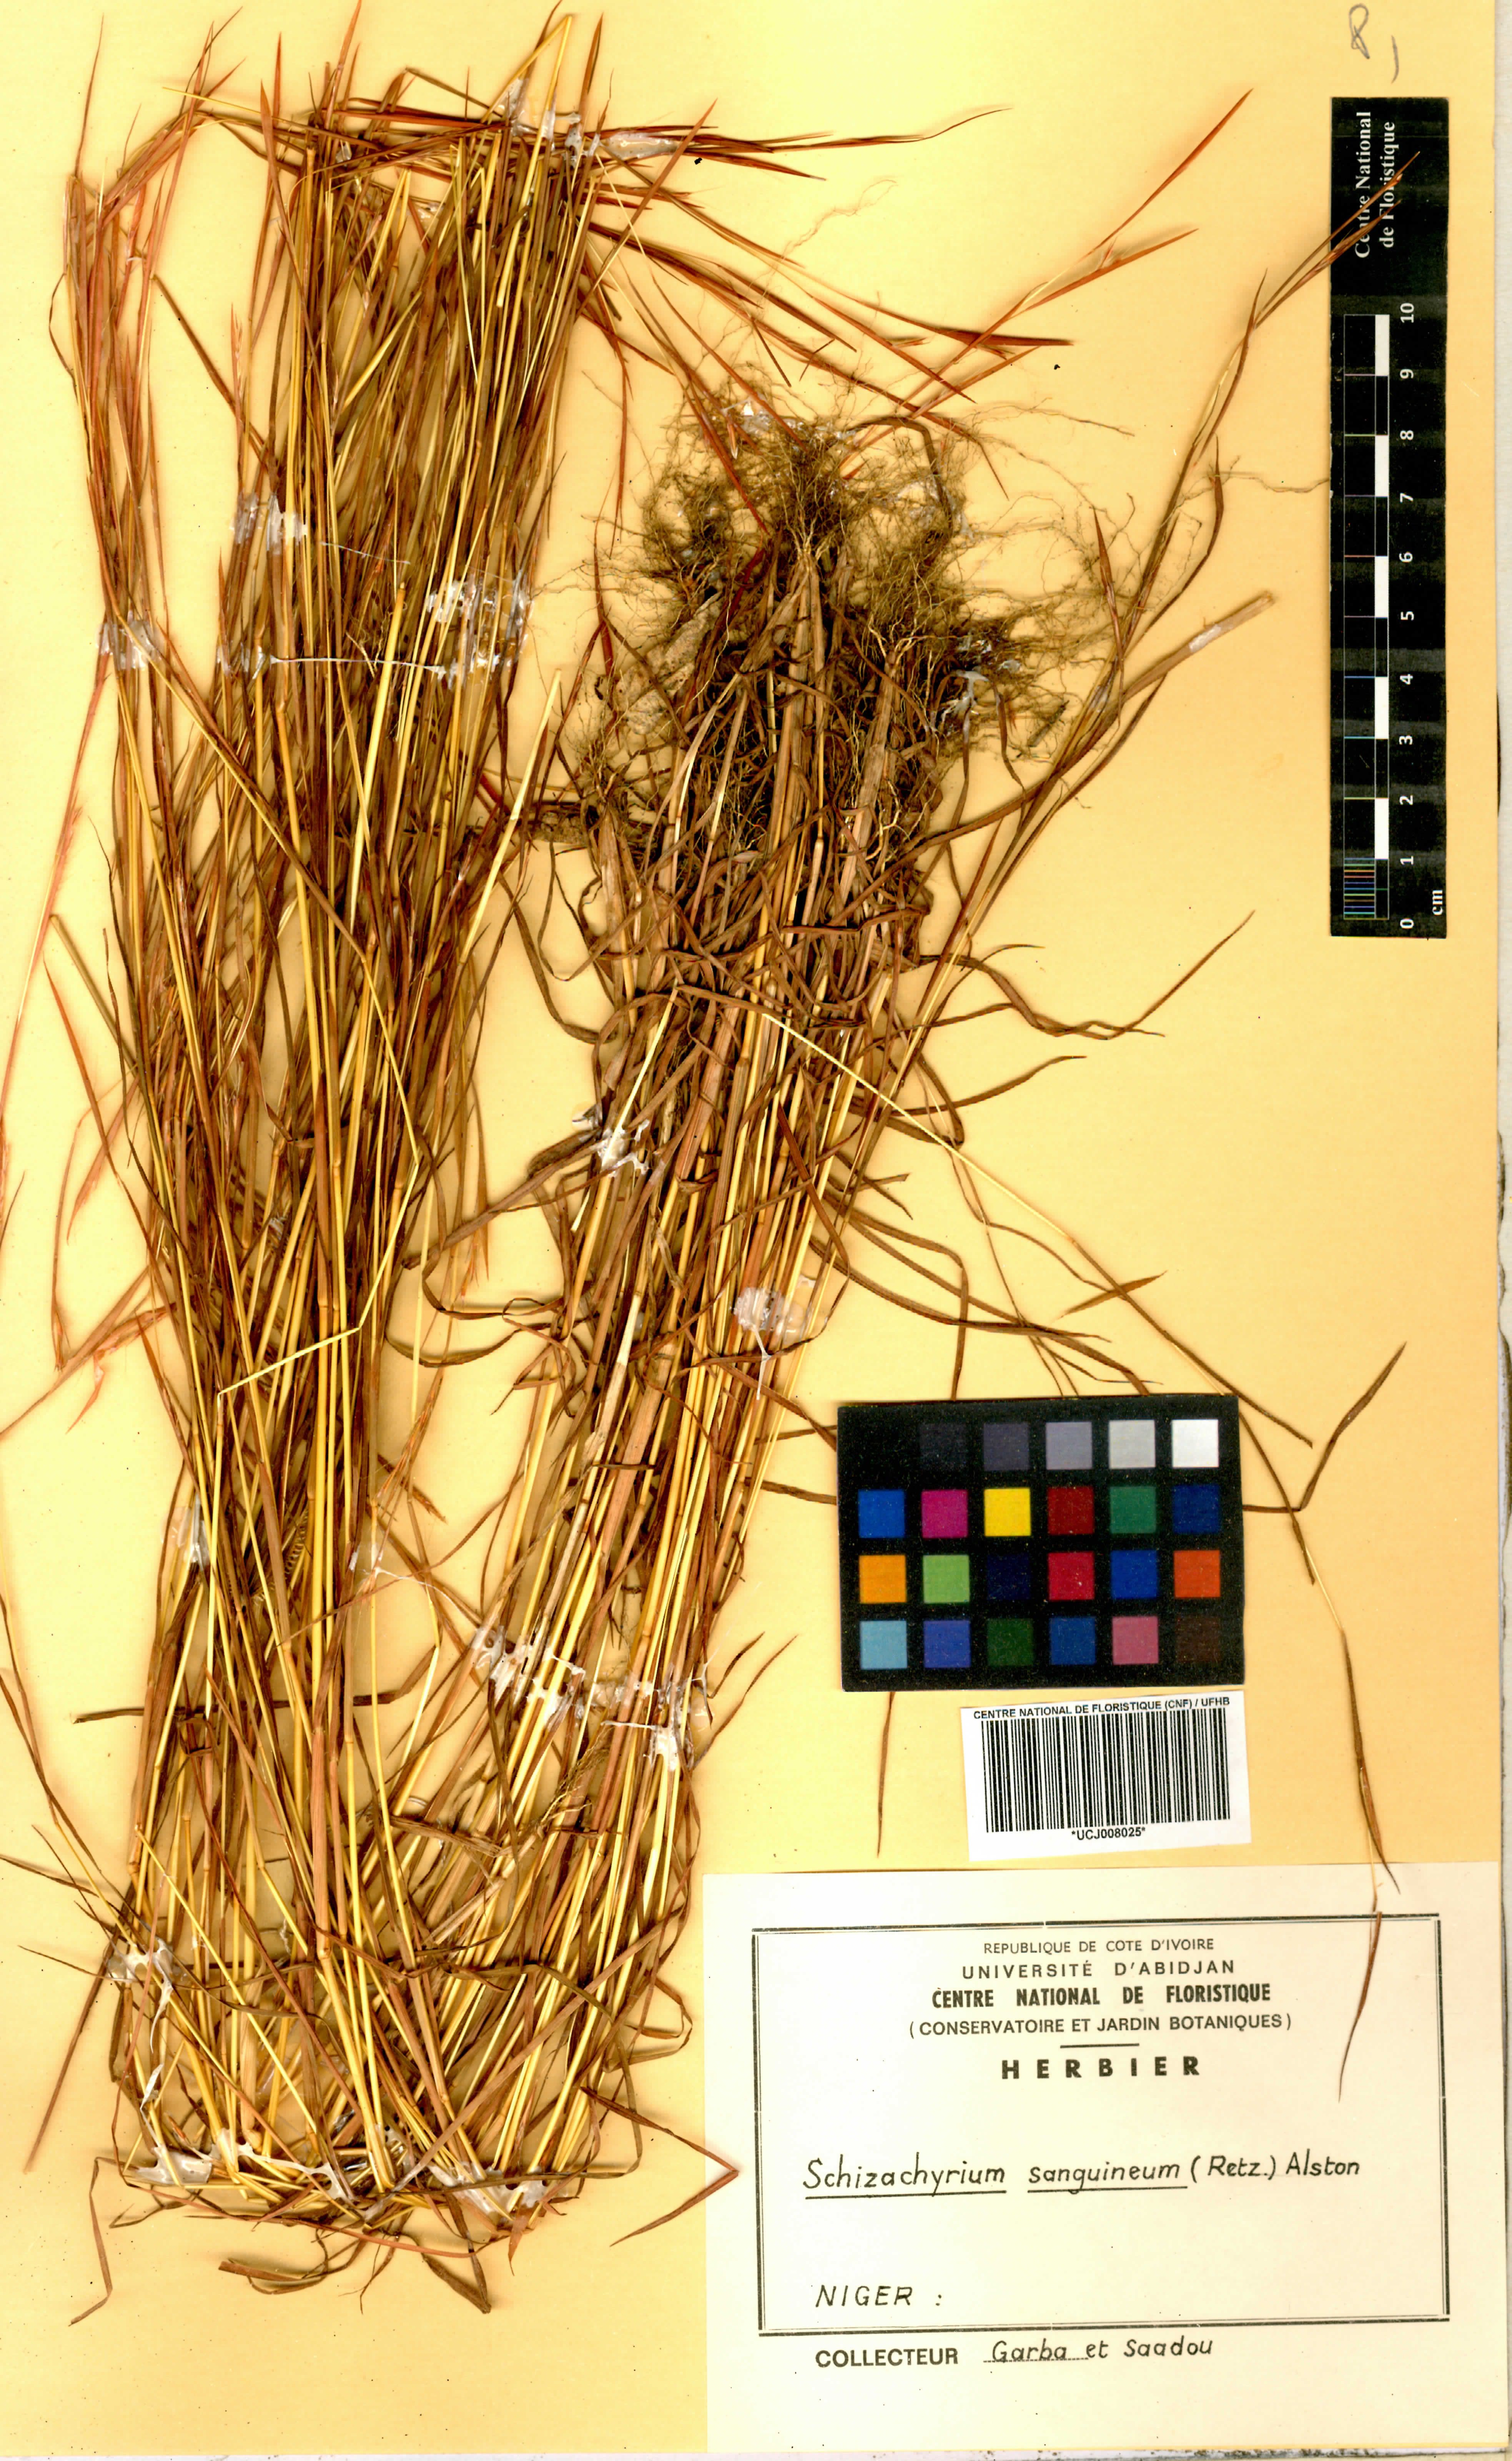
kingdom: Plantae
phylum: Tracheophyta
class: Liliopsida
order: Poales
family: Poaceae
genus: Schizachyrium
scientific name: Schizachyrium sanguineum
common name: Crimson bluestem
